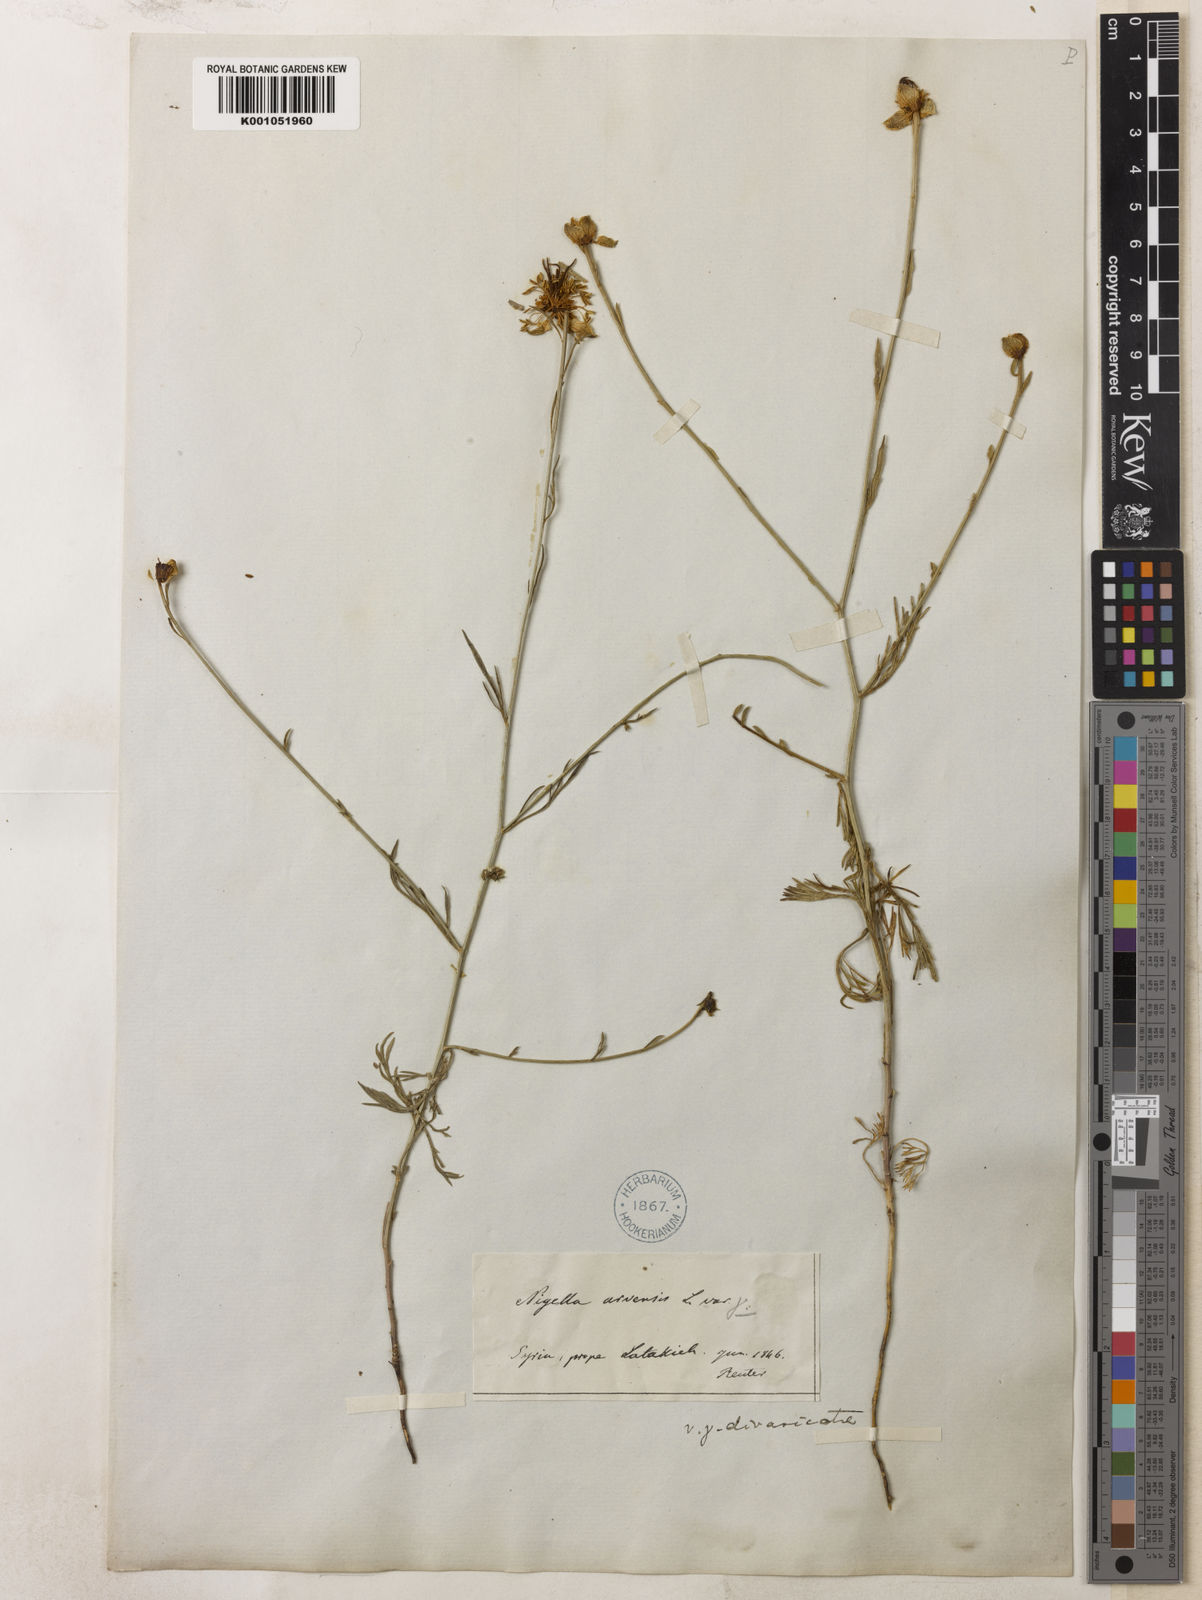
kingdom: Plantae
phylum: Tracheophyta
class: Magnoliopsida
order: Ranunculales
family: Ranunculaceae
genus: Nigella
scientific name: Nigella arvensis
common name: Wild fennel-flower
